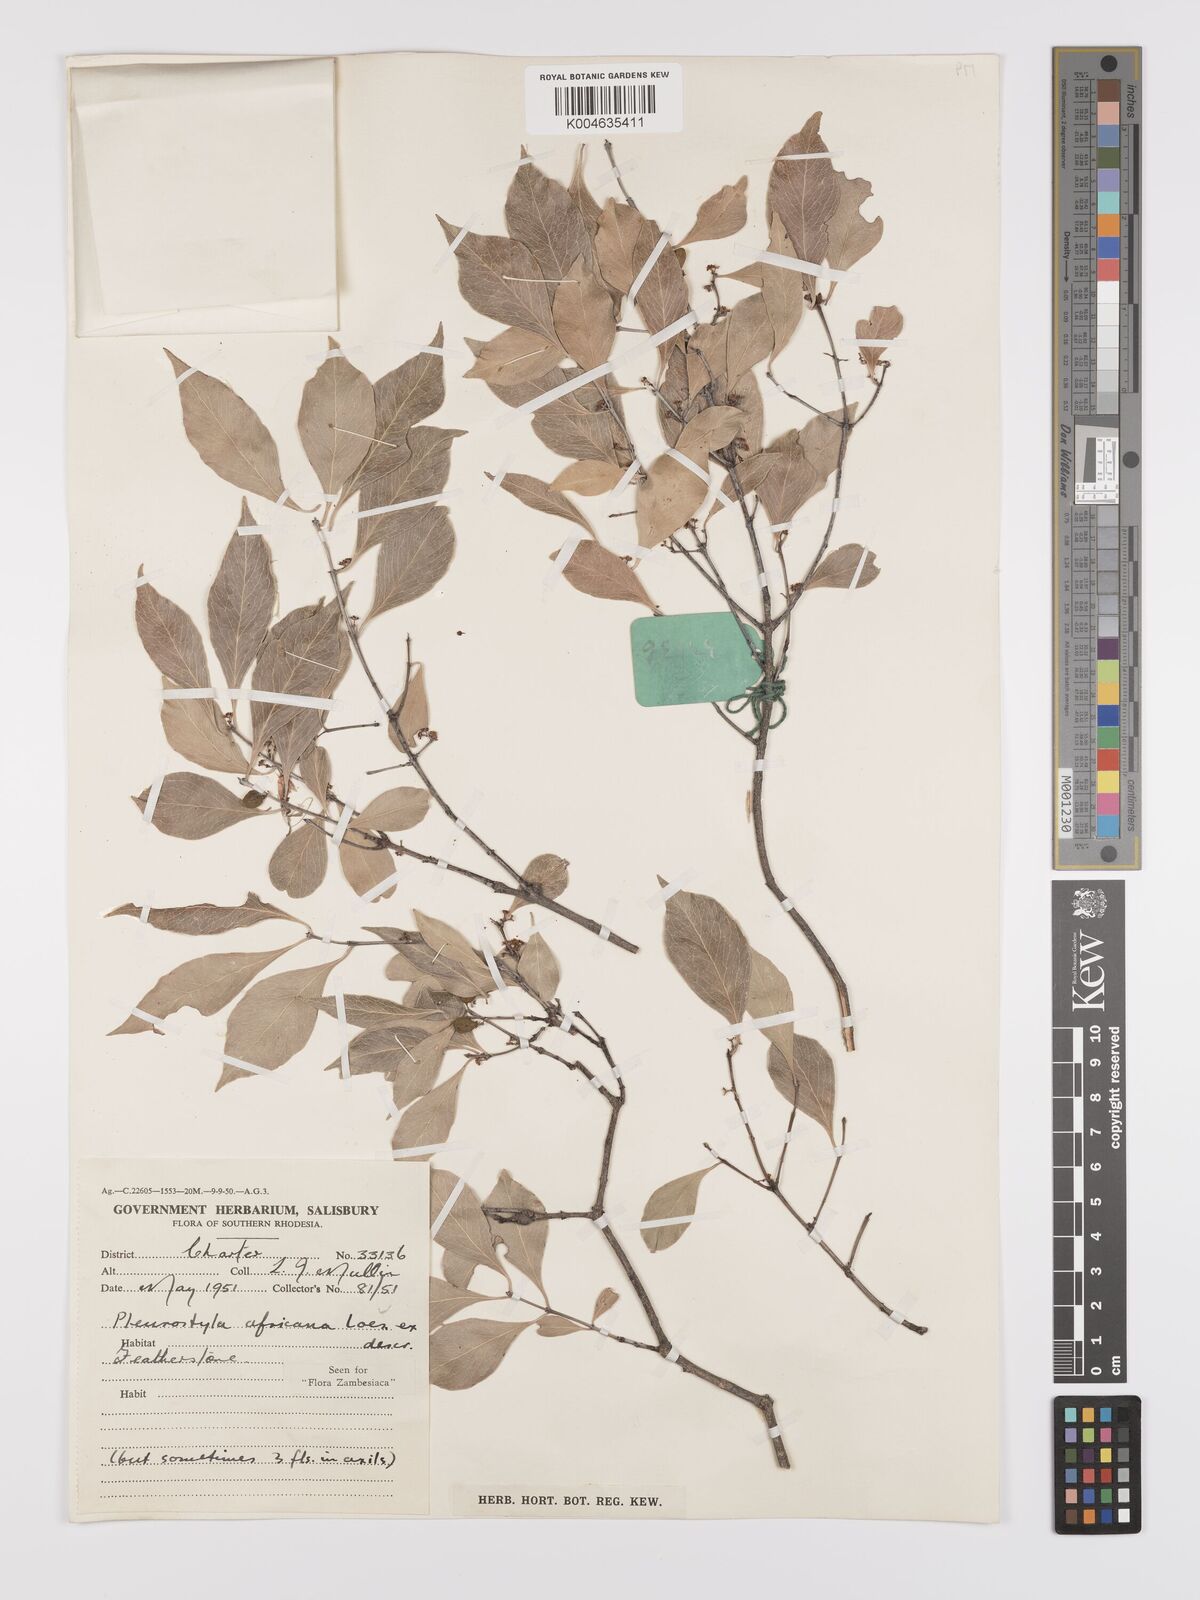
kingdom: Plantae
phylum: Tracheophyta
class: Magnoliopsida
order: Celastrales
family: Celastraceae
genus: Pleurostylia
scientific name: Pleurostylia africana
